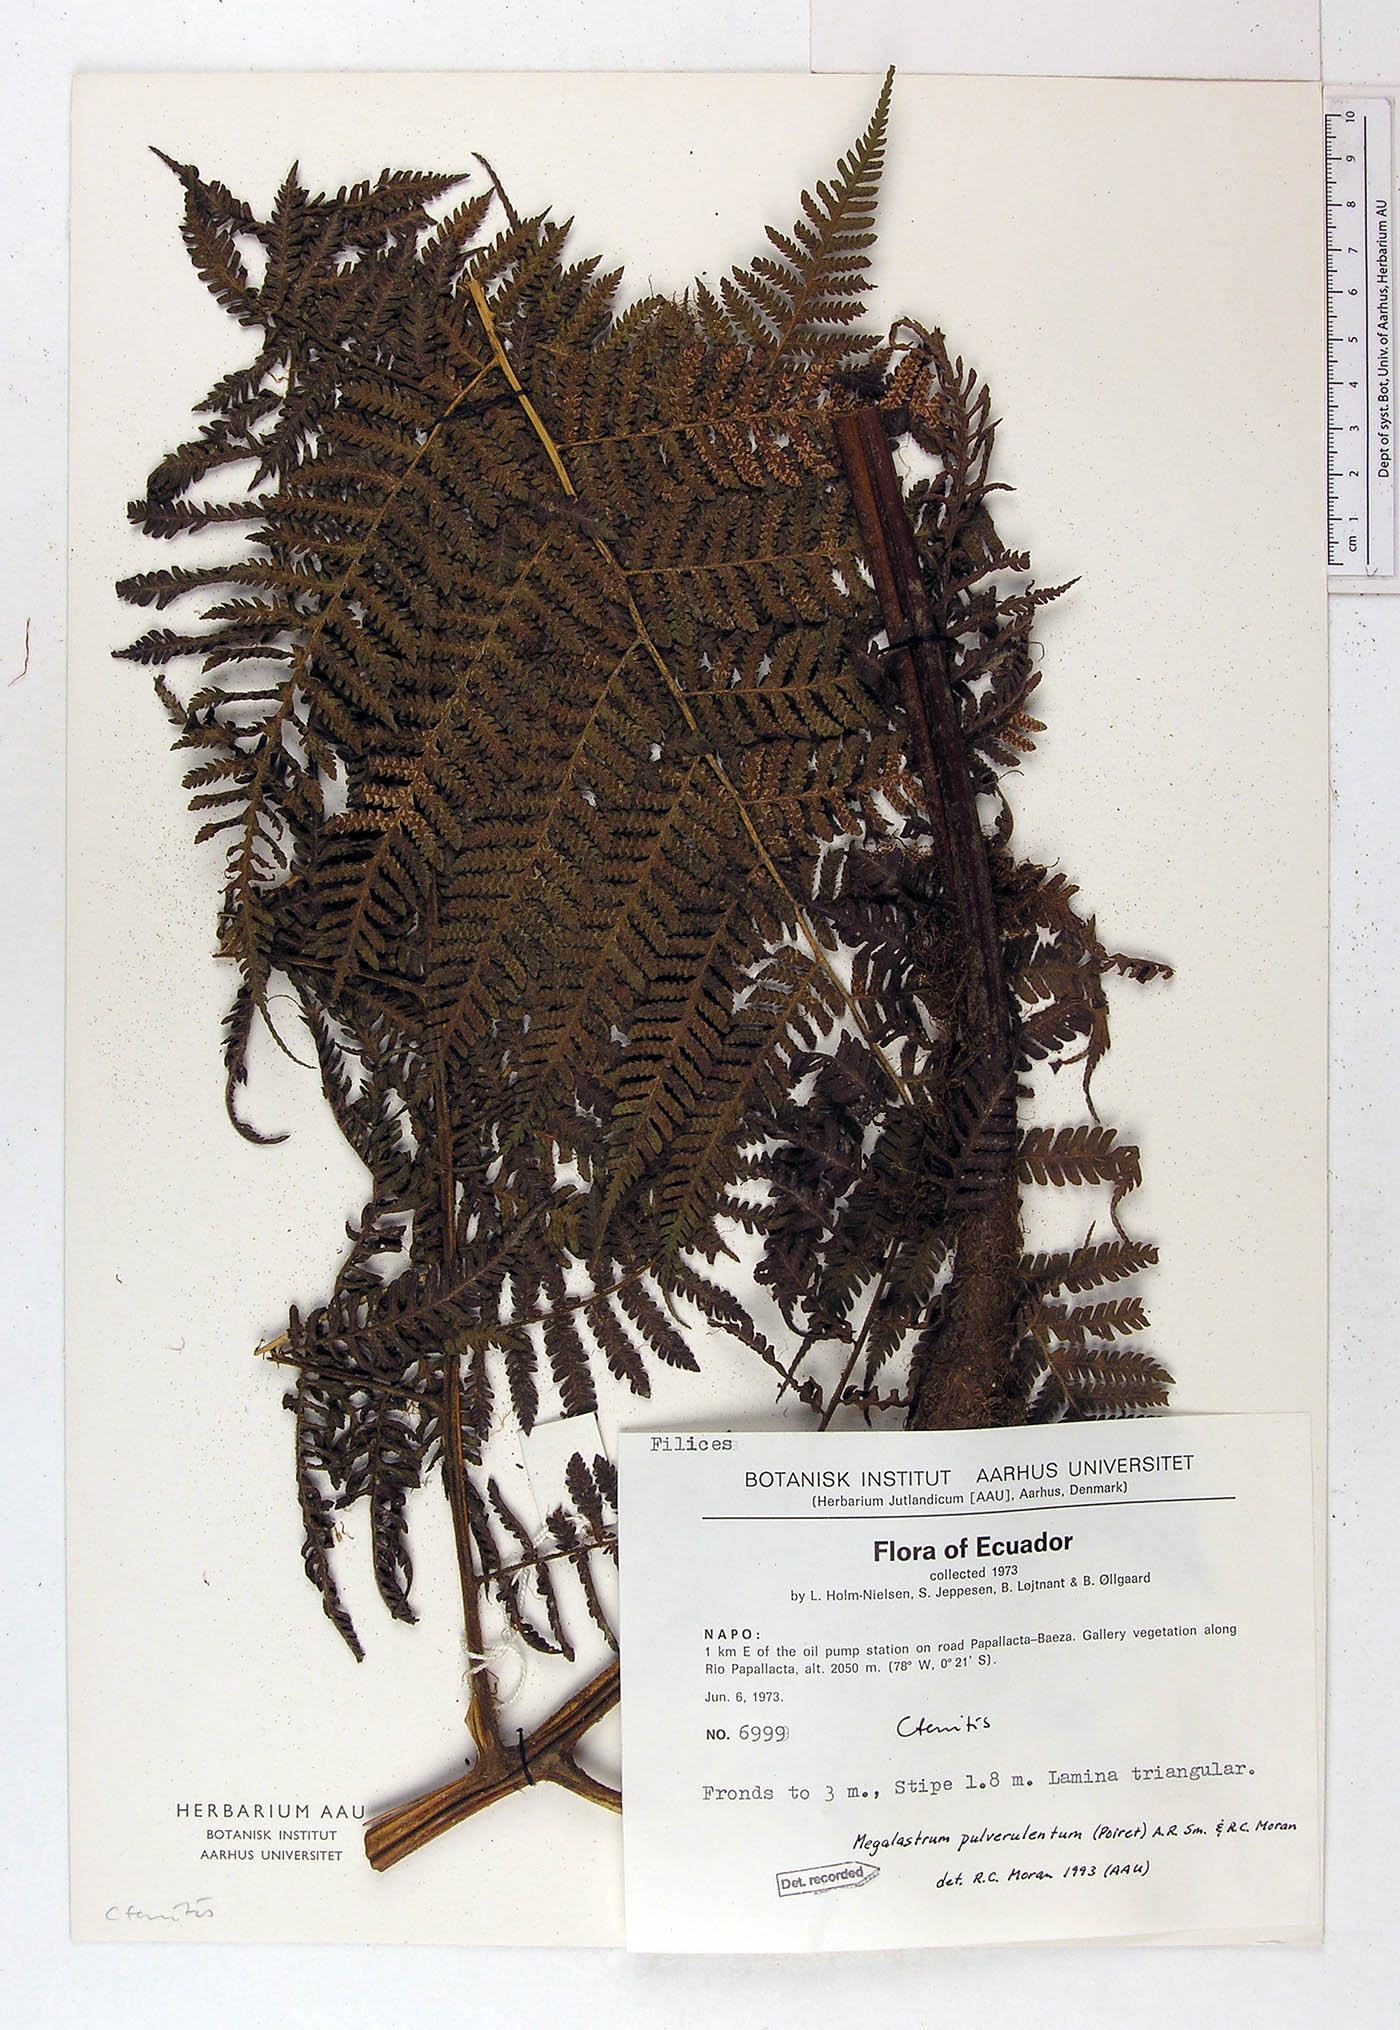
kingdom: Plantae
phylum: Tracheophyta
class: Polypodiopsida
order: Polypodiales
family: Dryopteridaceae
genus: Megalastrum
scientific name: Megalastrum fugaceum
